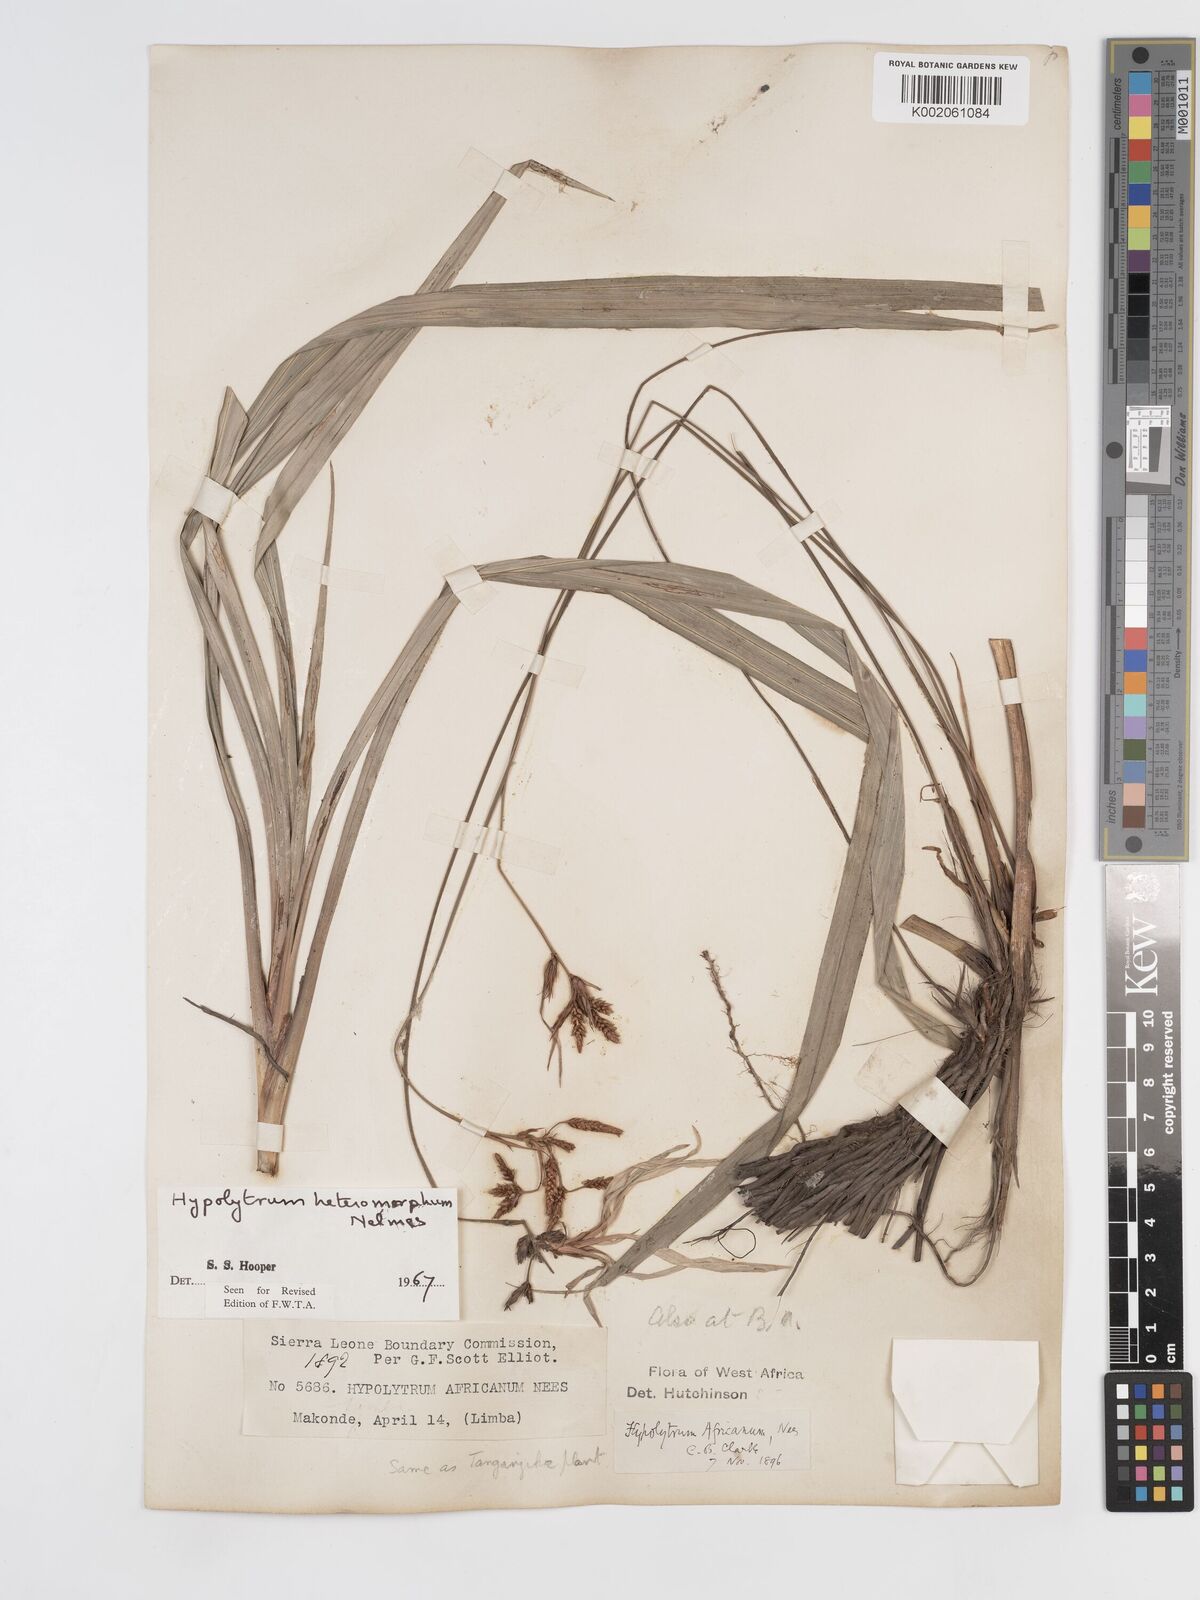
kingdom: Plantae
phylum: Tracheophyta
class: Liliopsida
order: Poales
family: Cyperaceae
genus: Hypolytrum
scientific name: Hypolytrum heteromorphum
